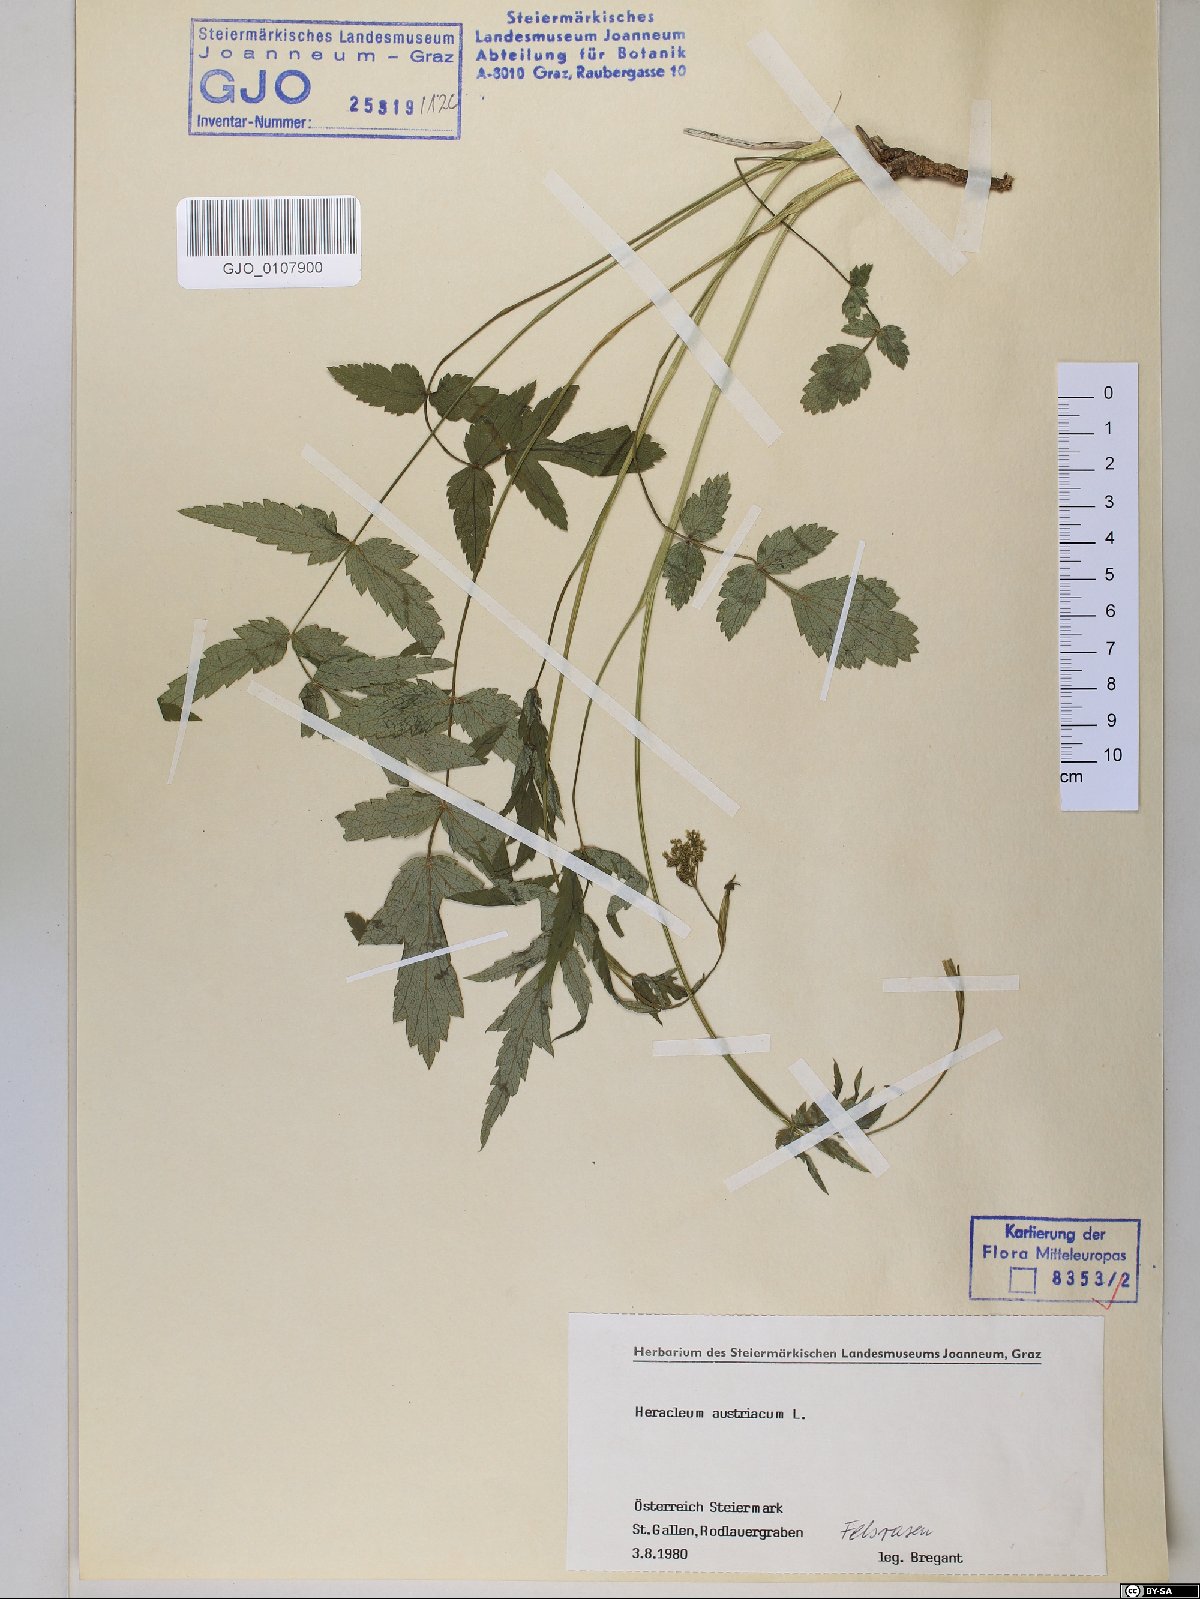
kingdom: Plantae
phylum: Tracheophyta
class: Magnoliopsida
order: Apiales
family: Apiaceae
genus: Heracleum
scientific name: Heracleum austriacum
